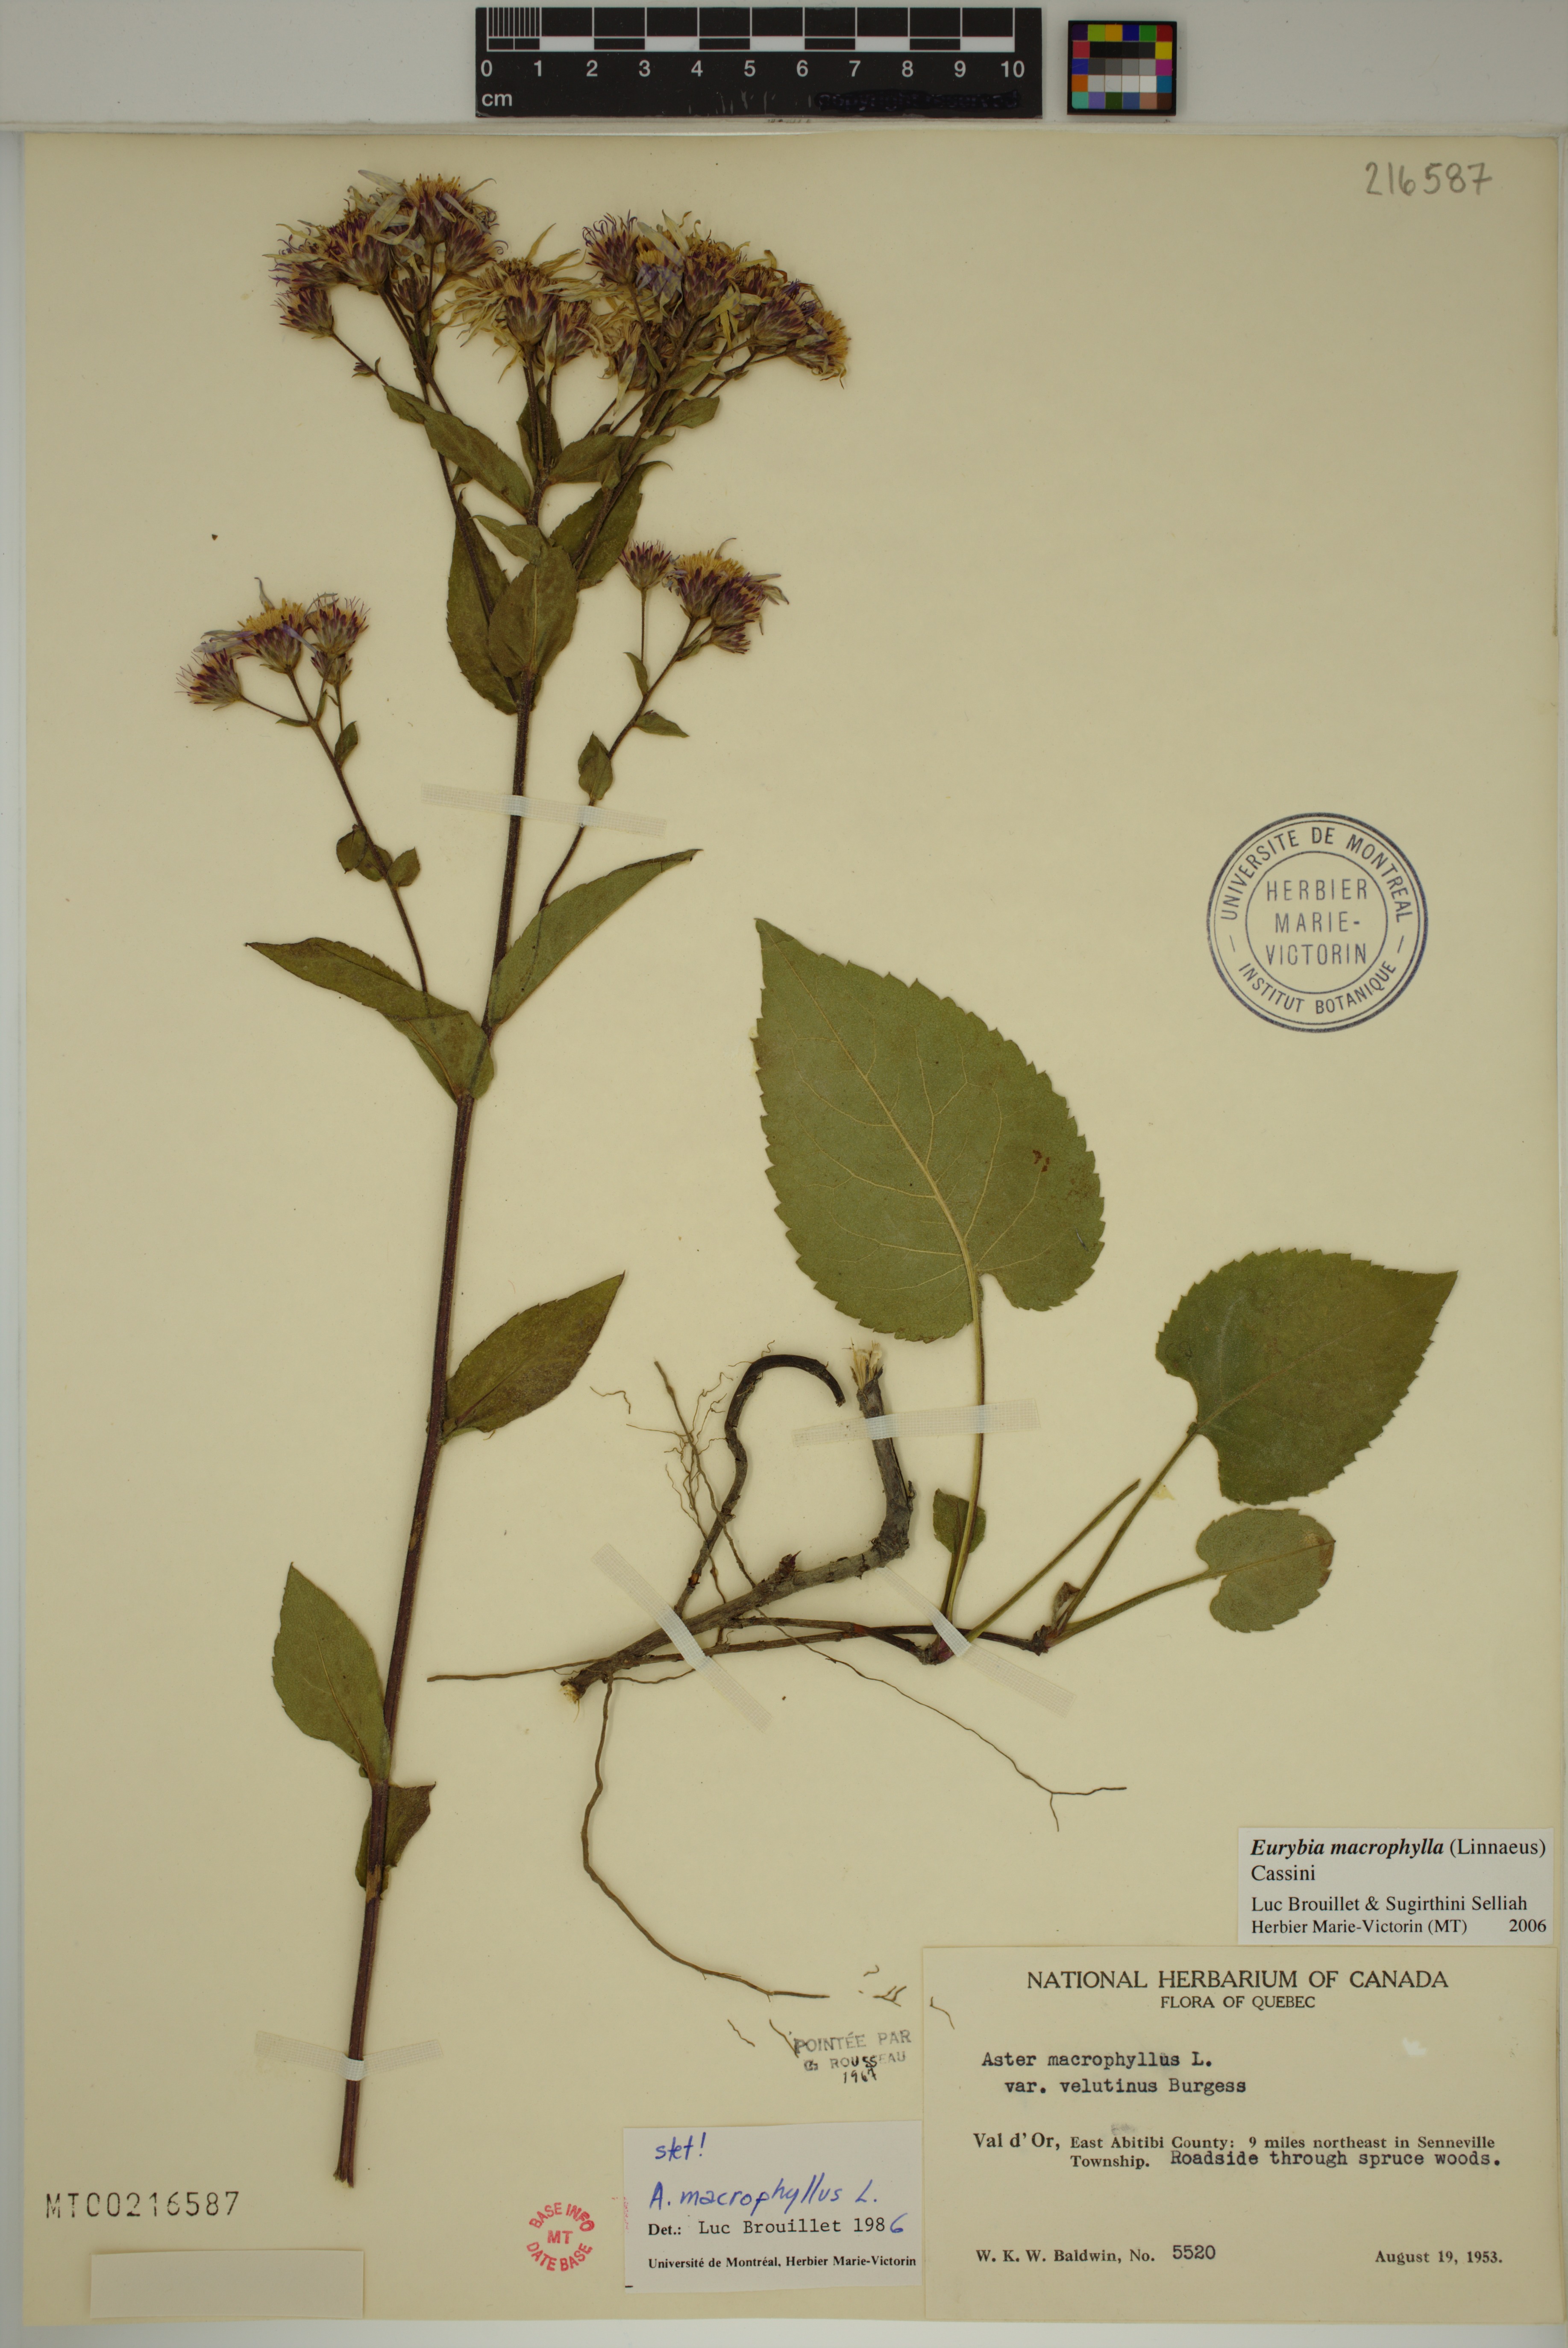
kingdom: Plantae
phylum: Tracheophyta
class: Magnoliopsida
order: Asterales
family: Asteraceae
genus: Eurybia
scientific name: Eurybia macrophylla
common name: Big-leaved aster
